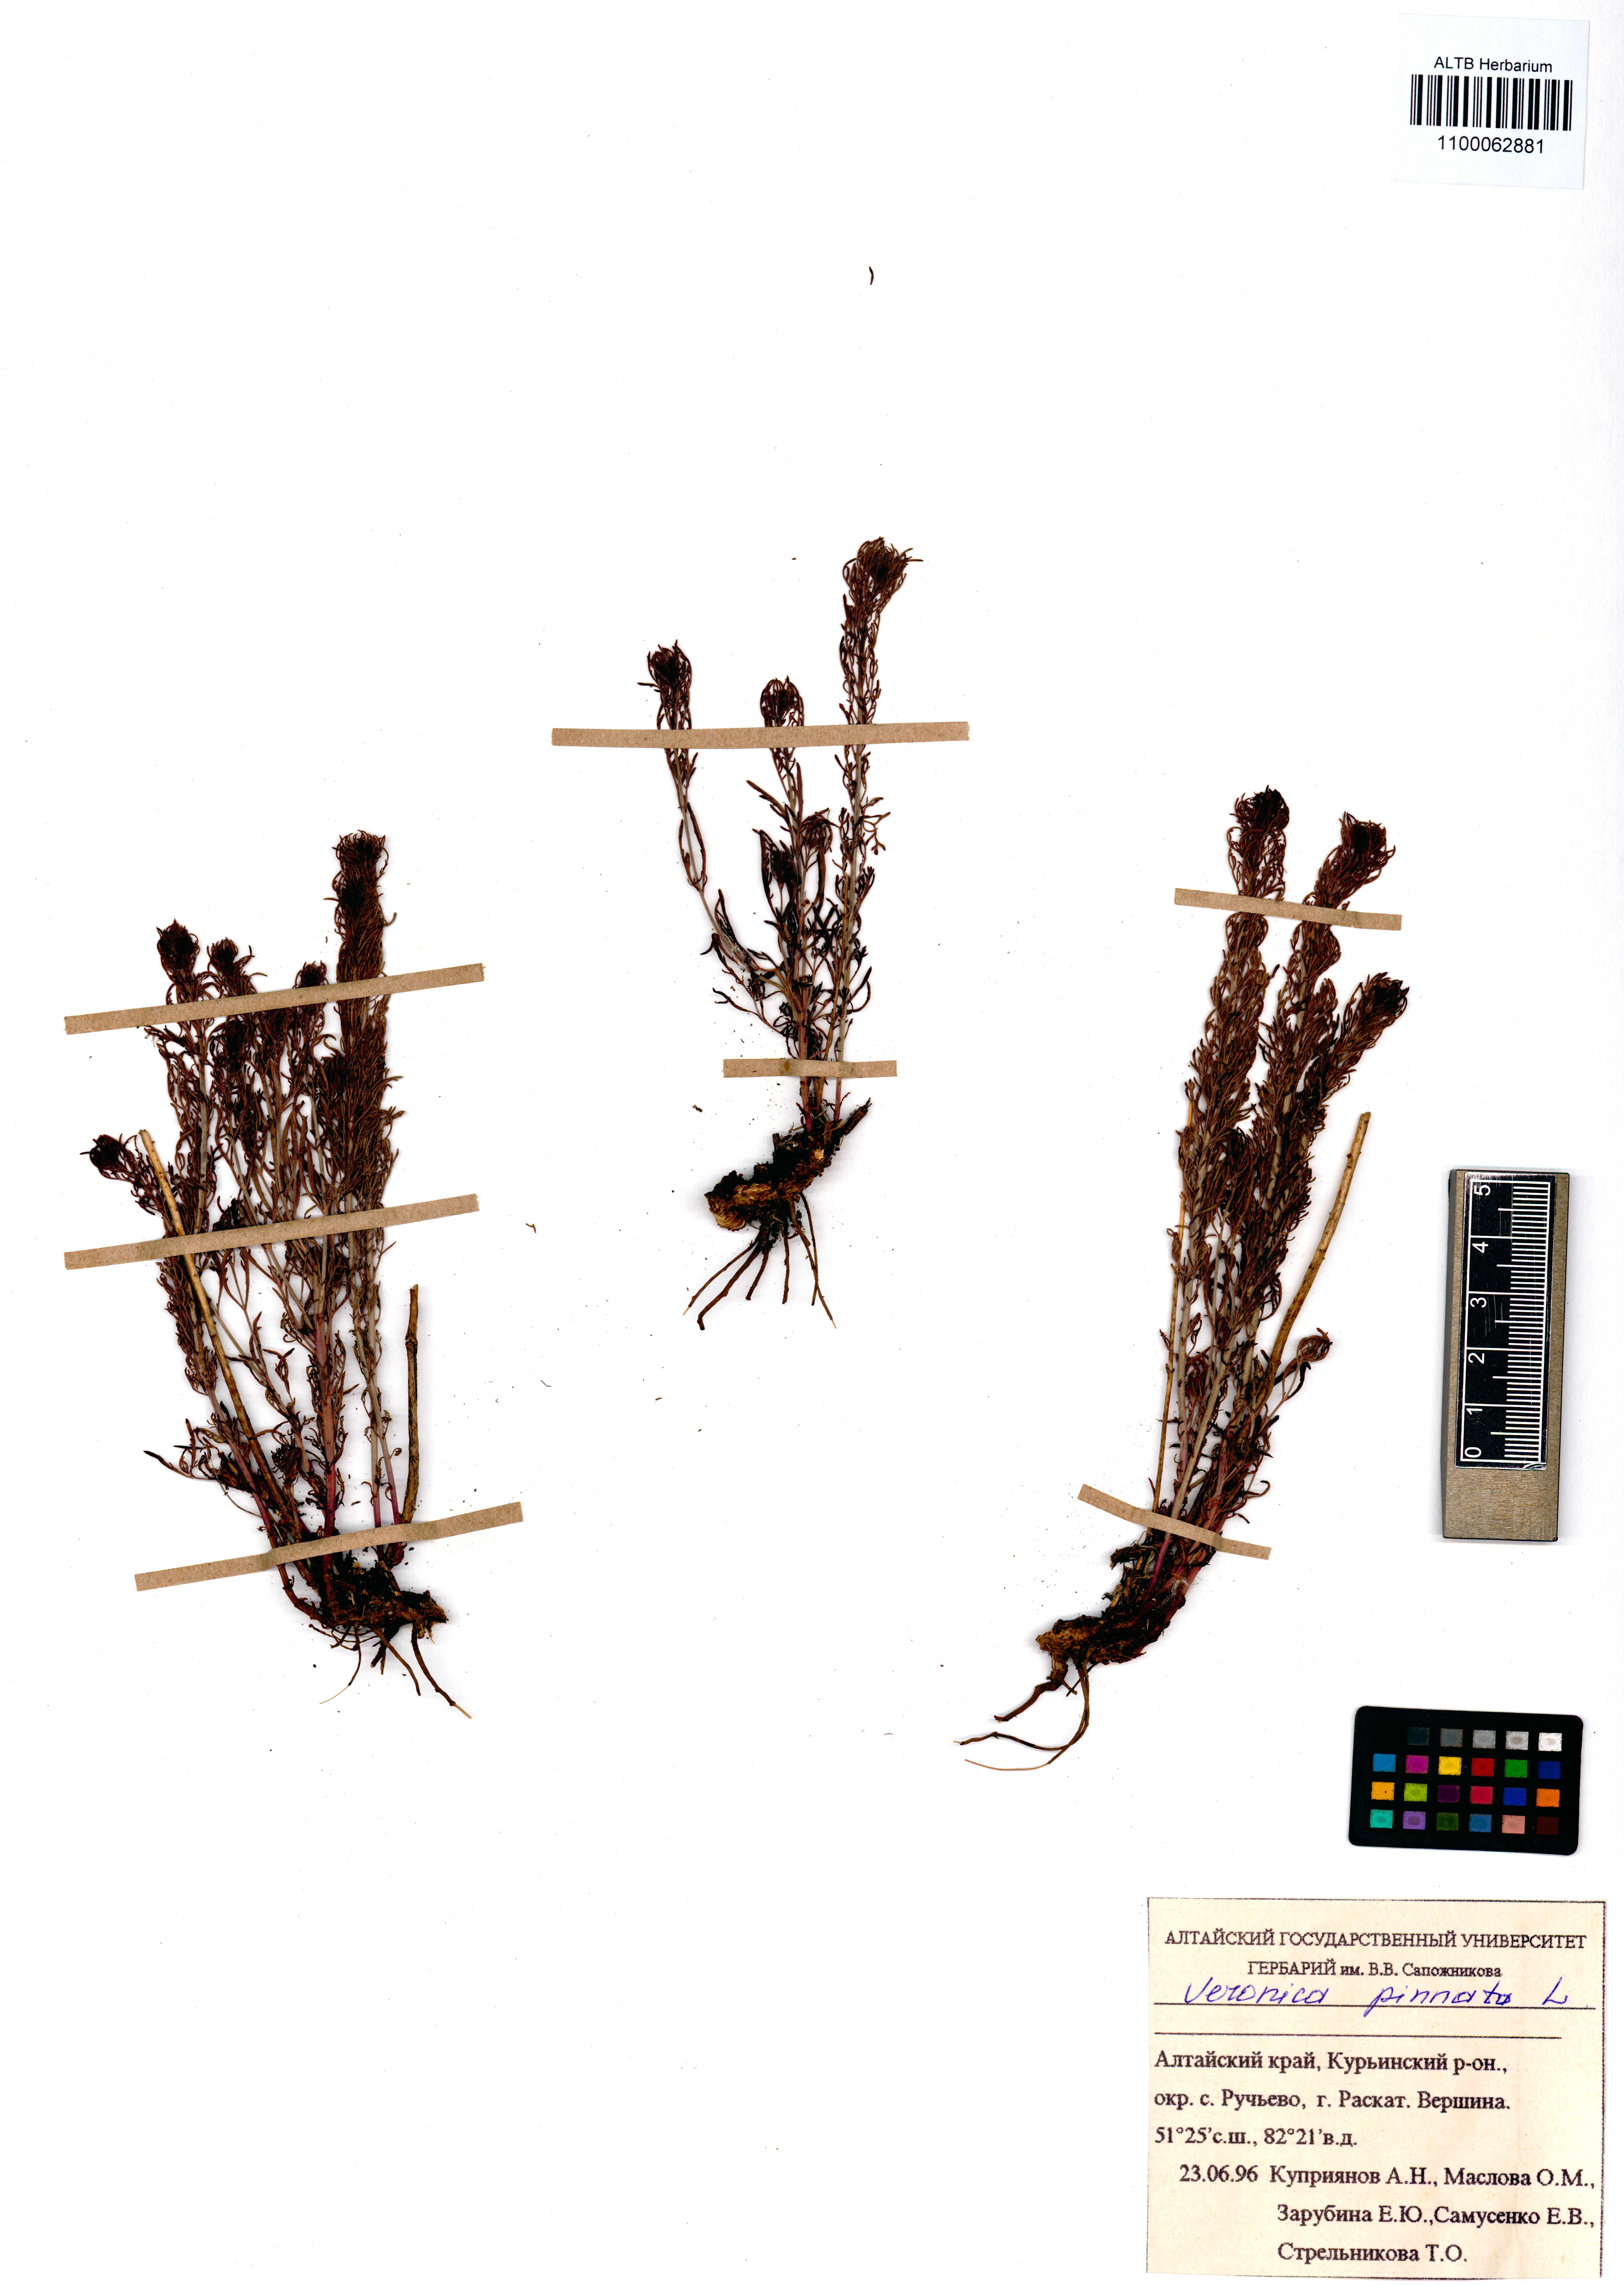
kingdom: Plantae
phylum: Tracheophyta
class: Magnoliopsida
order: Lamiales
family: Plantaginaceae
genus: Veronica
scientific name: Veronica pinnata
